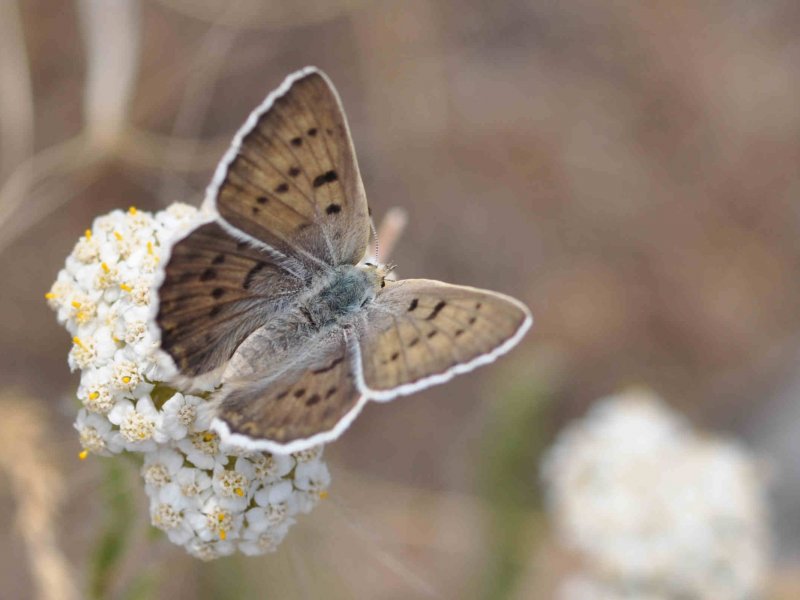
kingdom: Animalia
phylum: Arthropoda
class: Insecta
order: Lepidoptera
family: Lycaenidae
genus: Lycaena
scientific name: Lycaena heteronea
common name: Blue Copper
